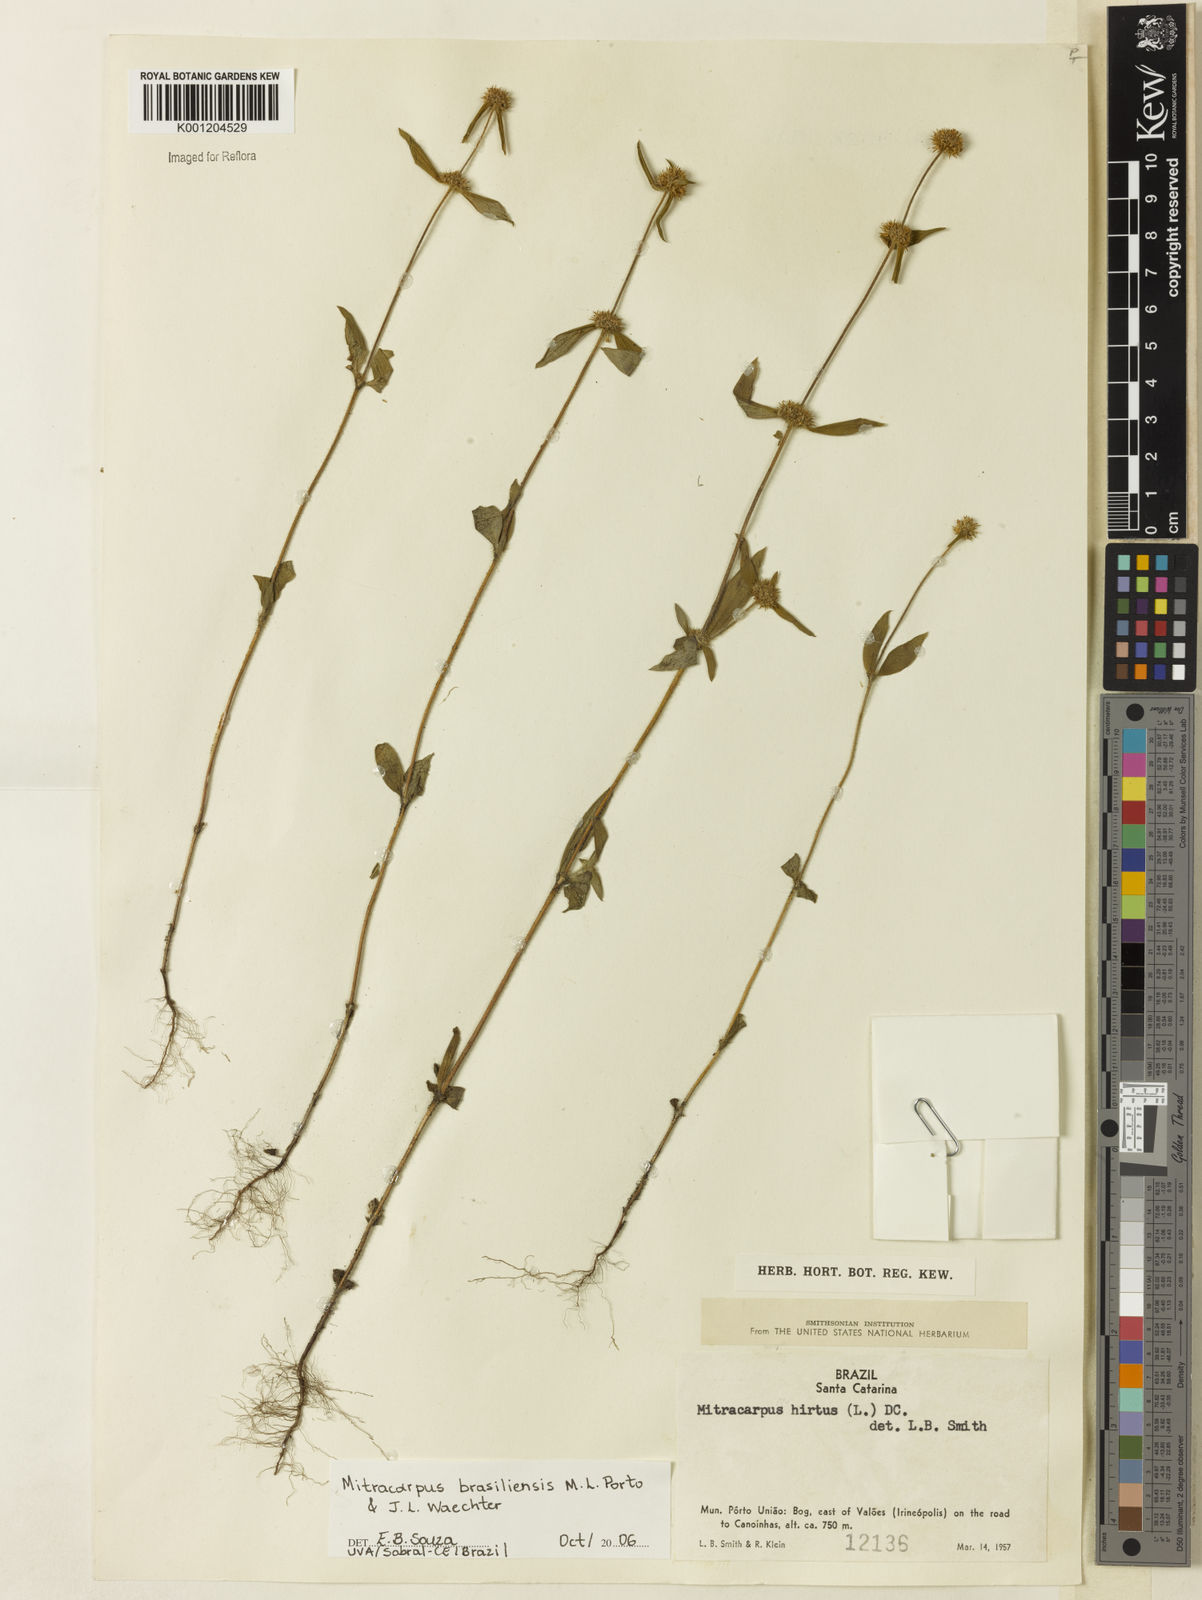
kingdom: Plantae
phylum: Tracheophyta
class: Magnoliopsida
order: Gentianales
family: Rubiaceae
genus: Mitracarpus
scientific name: Mitracarpus brasiliensis
